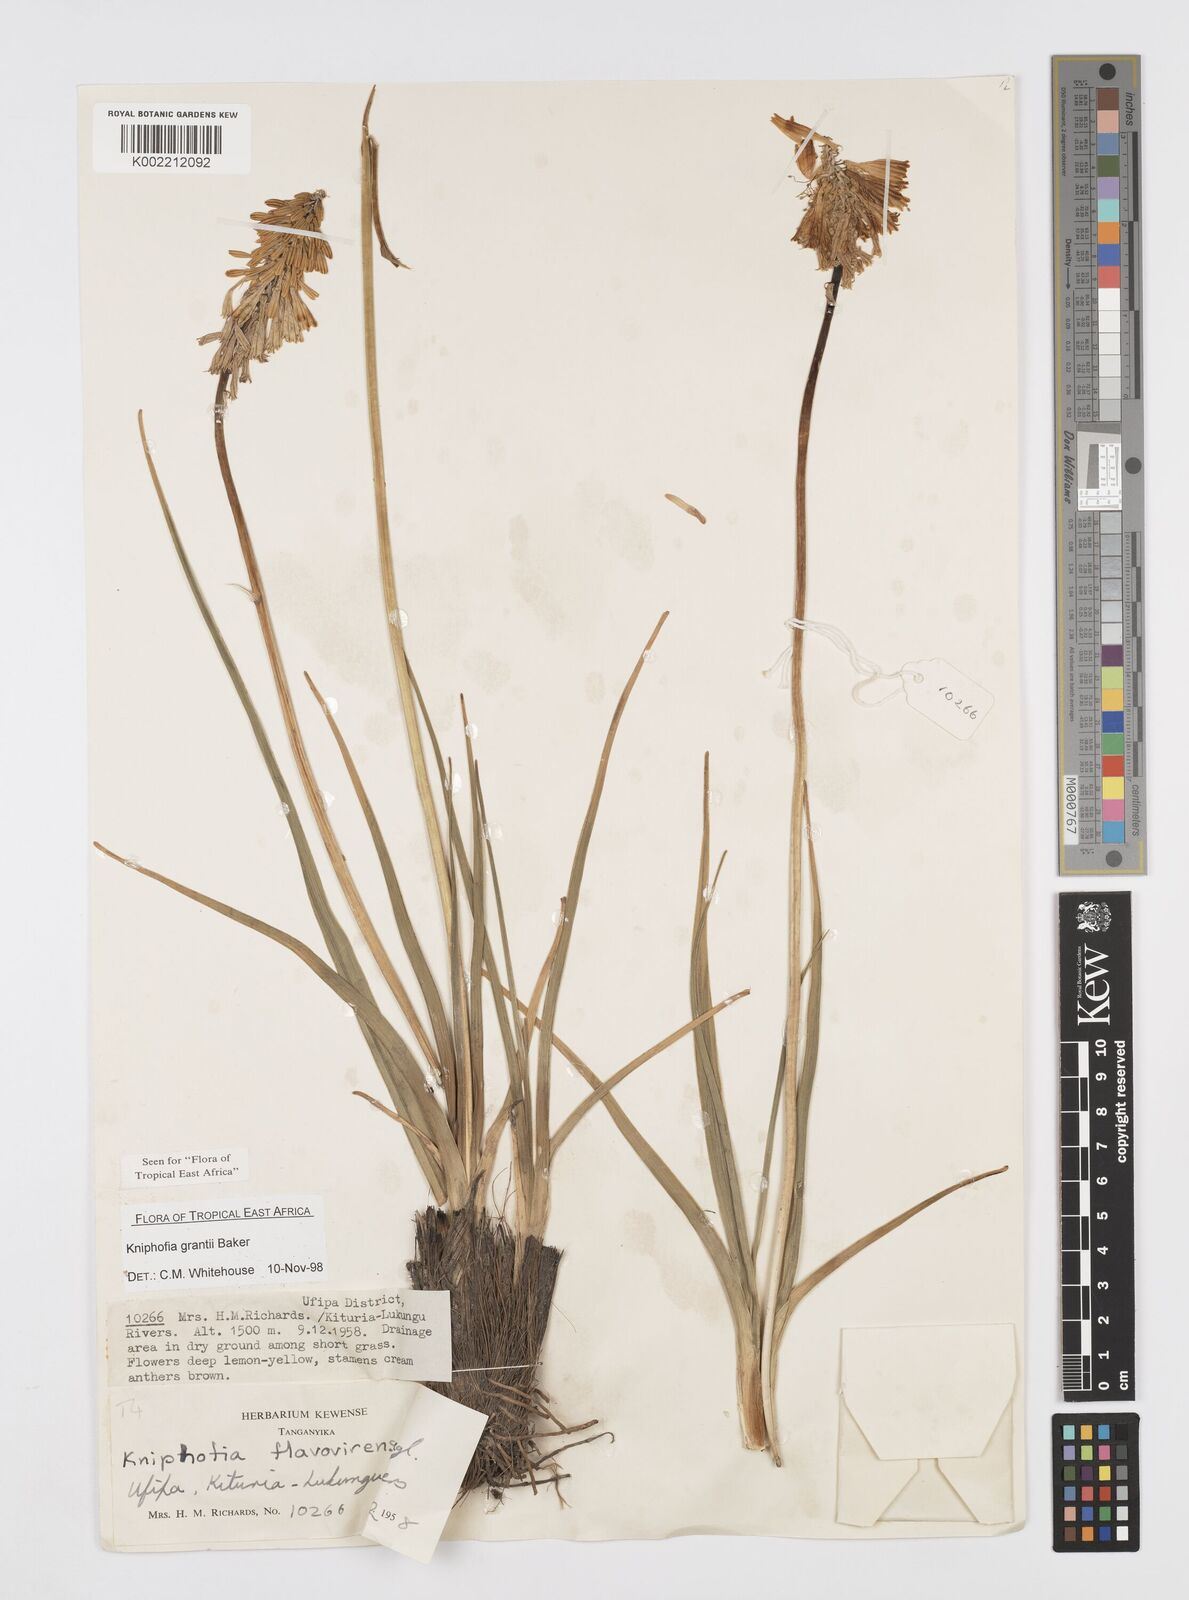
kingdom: Plantae
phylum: Tracheophyta
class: Liliopsida
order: Asparagales
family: Asphodelaceae
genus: Kniphofia
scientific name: Kniphofia grantii
